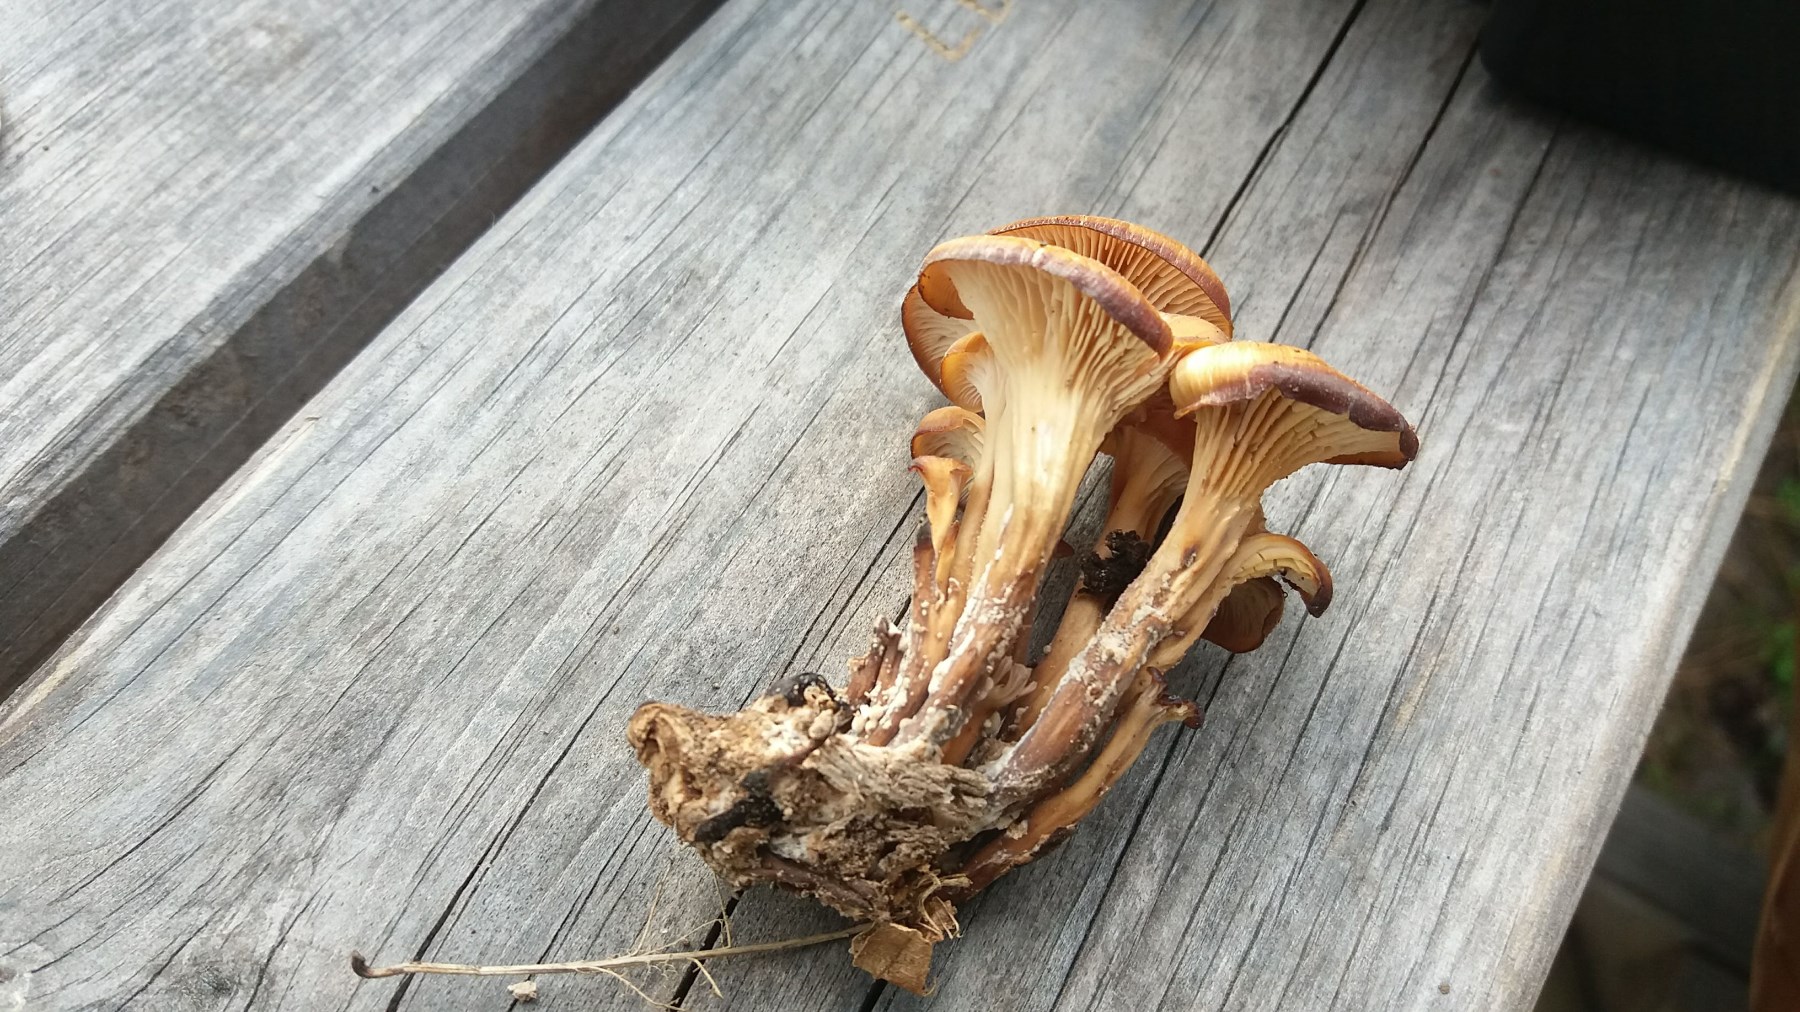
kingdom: Fungi
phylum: Basidiomycota
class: Agaricomycetes
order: Russulales
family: Auriscalpiaceae
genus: Lentinellus
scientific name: Lentinellus cochleatus
